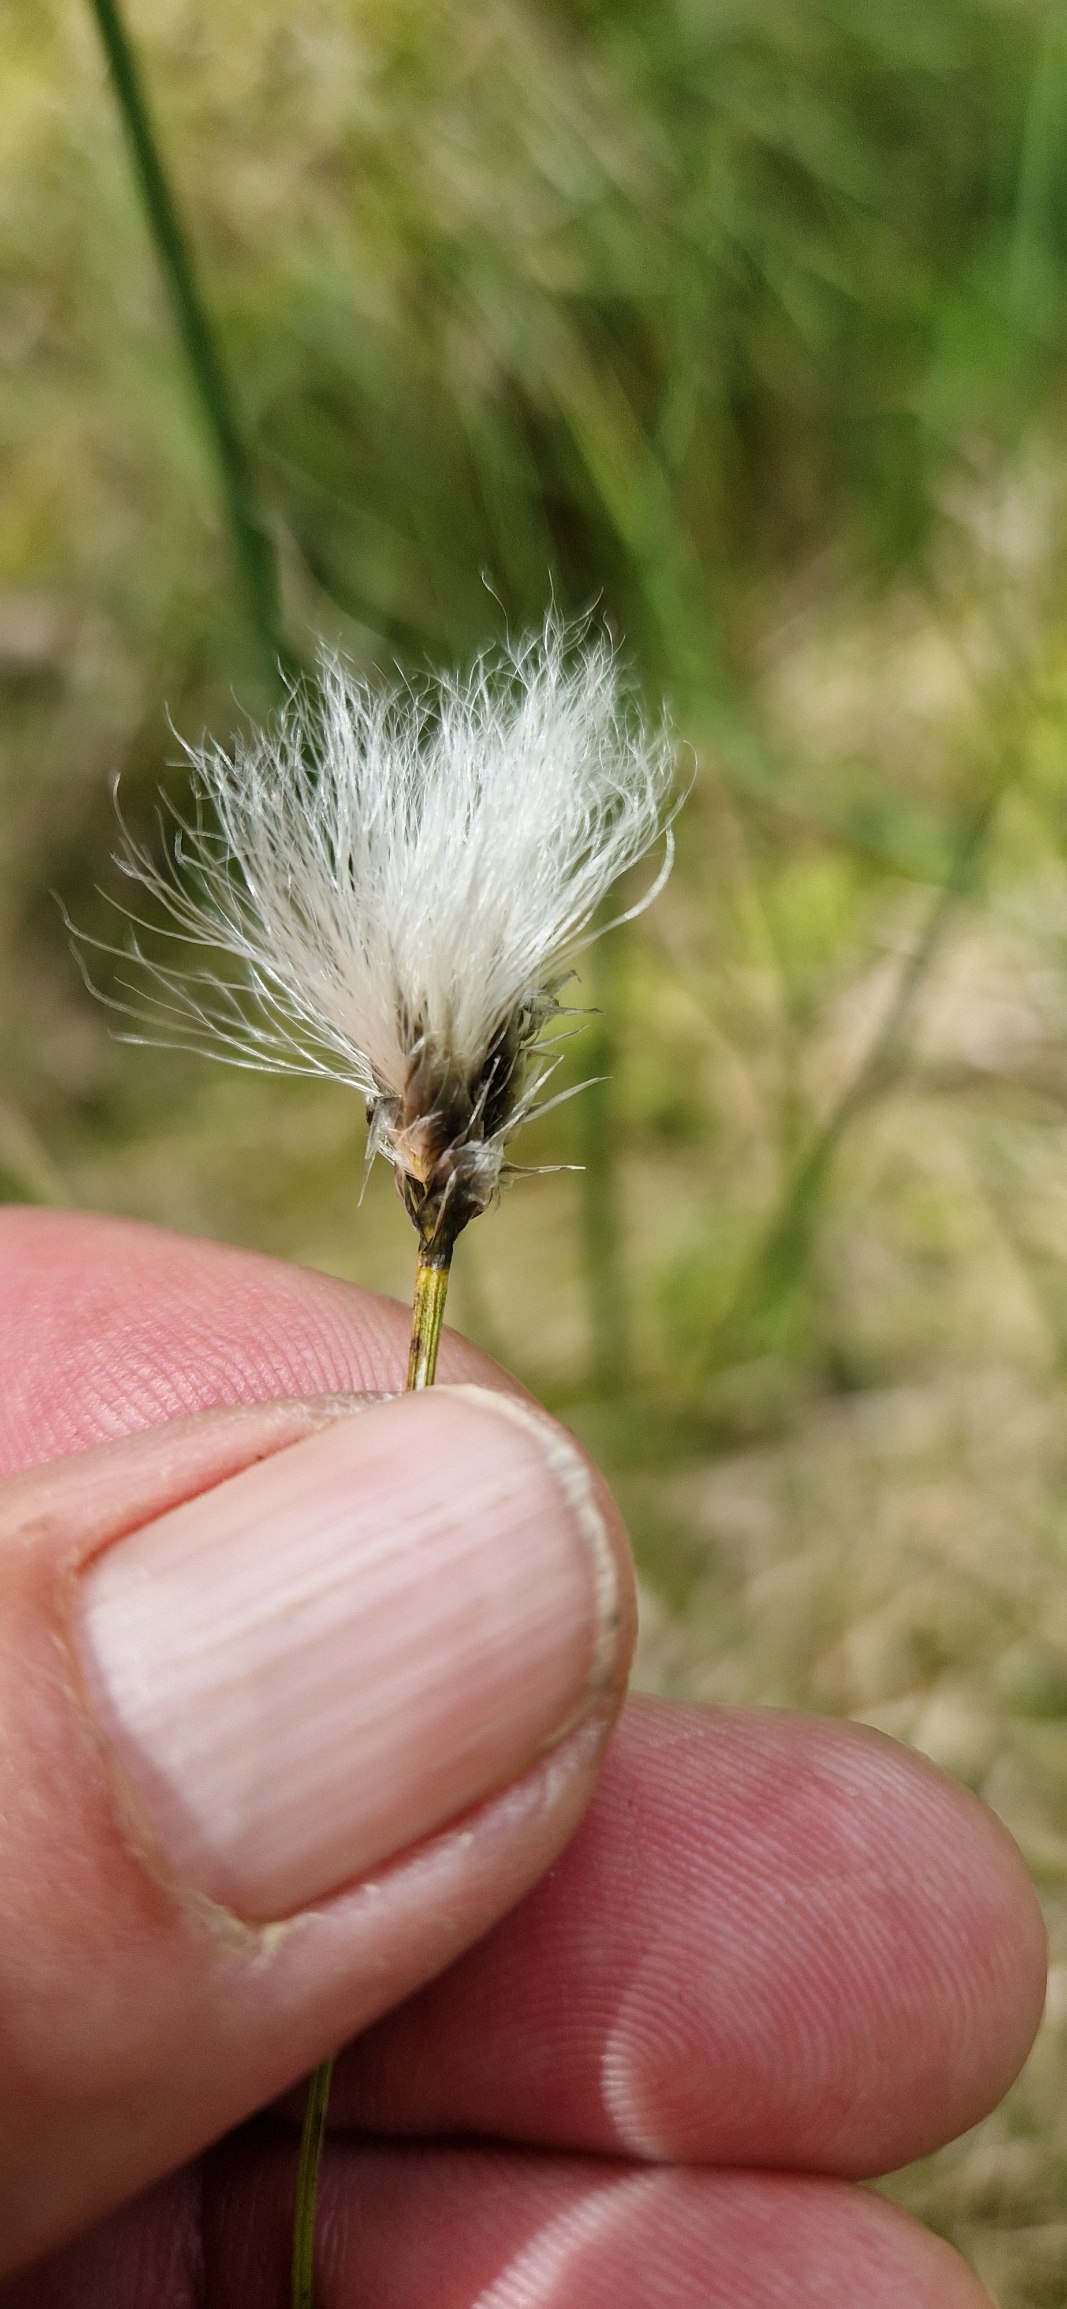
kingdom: Plantae
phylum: Tracheophyta
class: Liliopsida
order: Poales
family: Cyperaceae
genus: Eriophorum
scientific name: Eriophorum vaginatum
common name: Tue-kæruld
